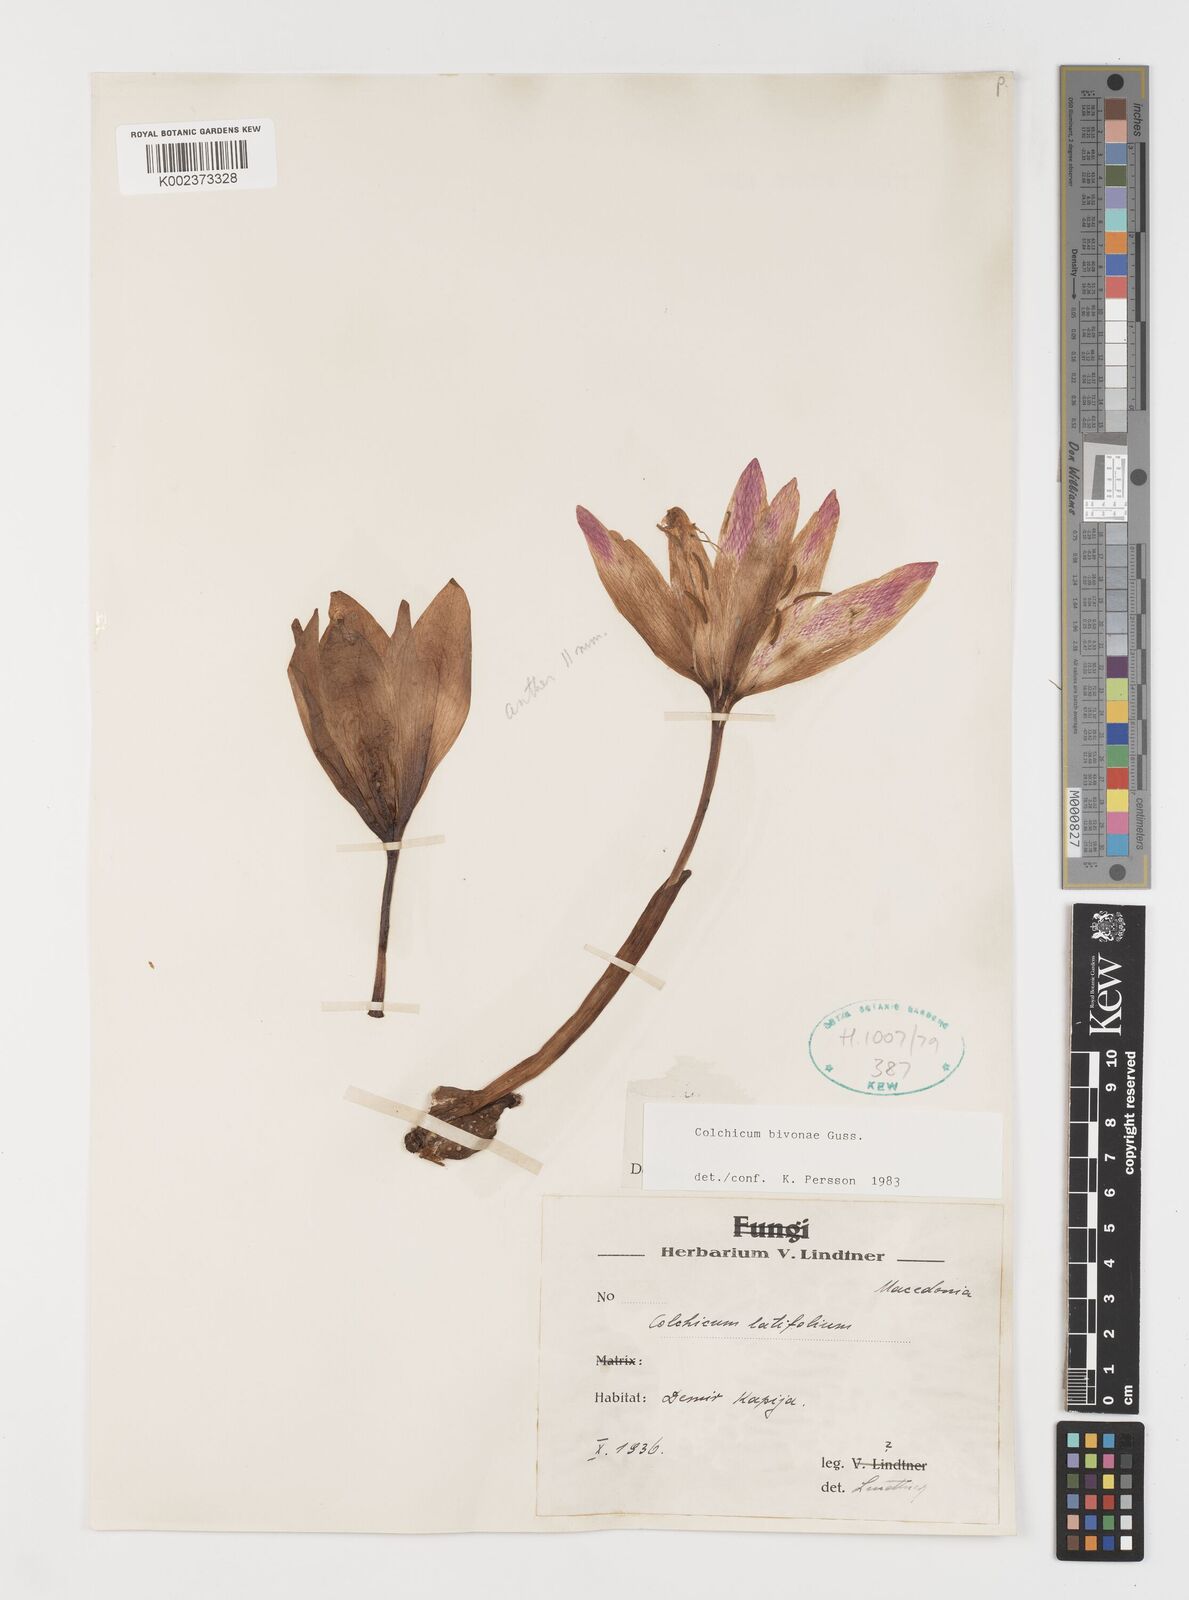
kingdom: Plantae
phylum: Tracheophyta
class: Liliopsida
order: Liliales
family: Colchicaceae
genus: Colchicum
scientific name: Colchicum bivonae
